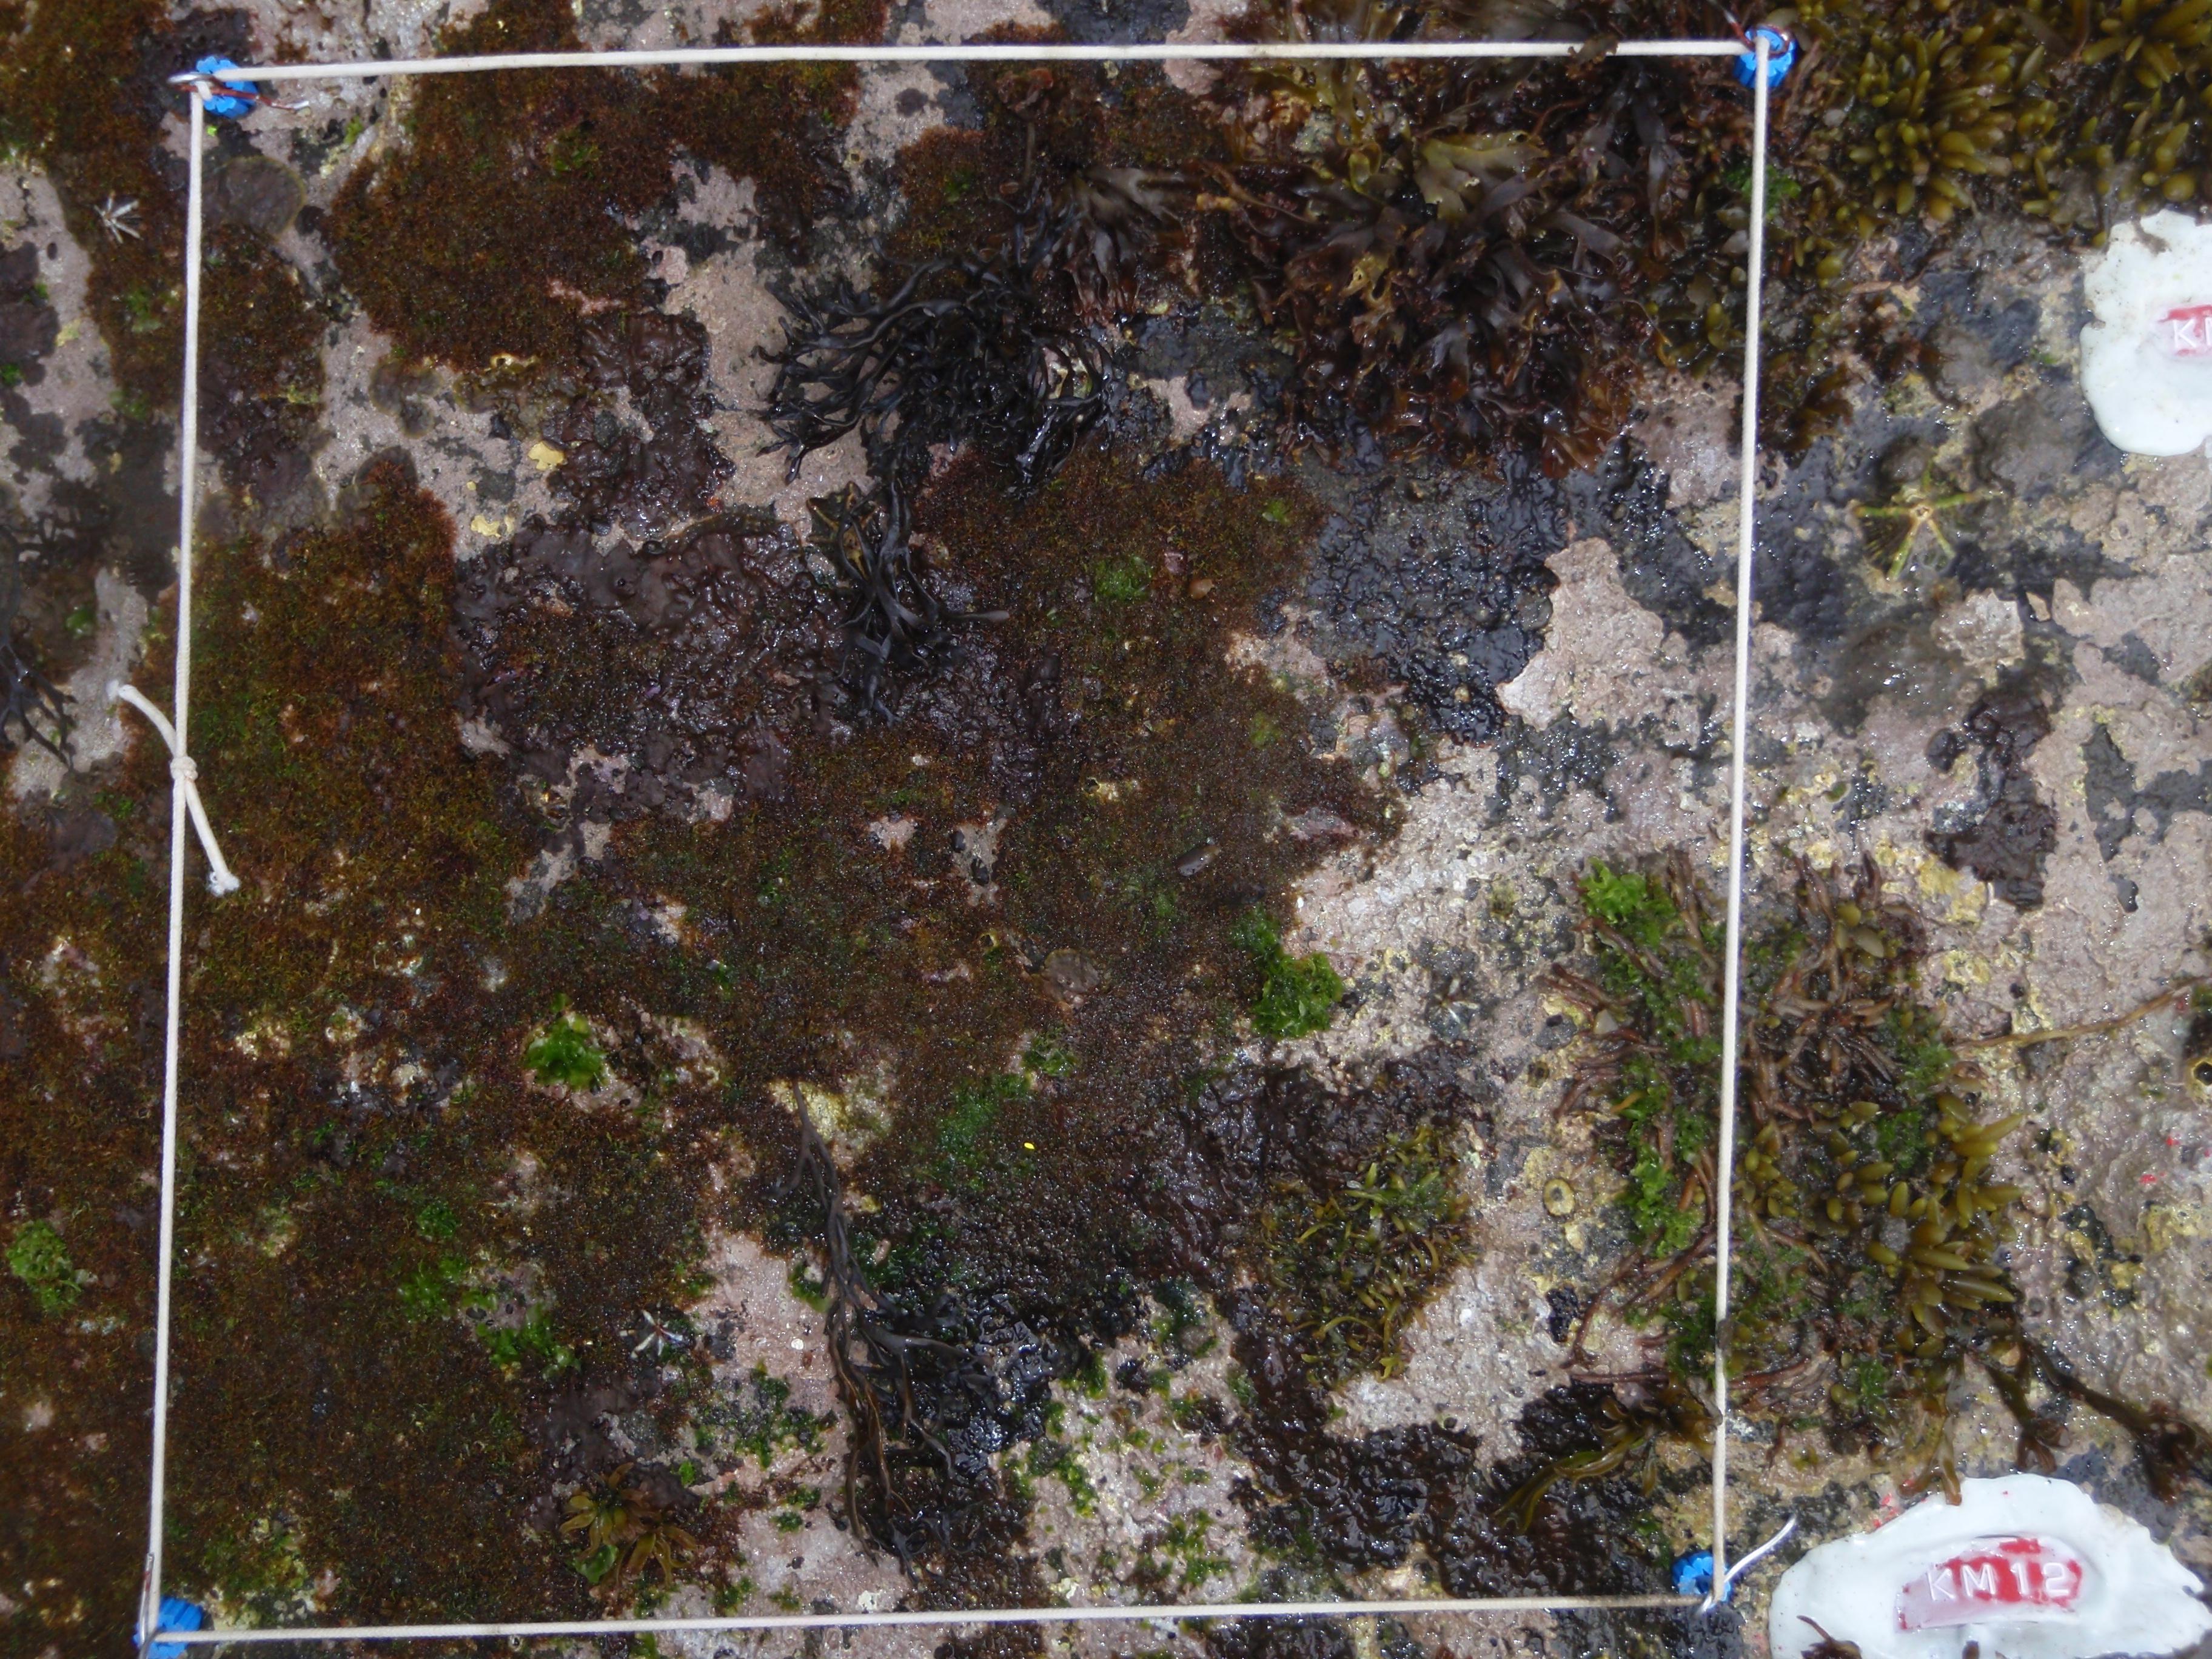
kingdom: Chromista
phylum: Ochrophyta
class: Phaeophyceae
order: Fucales
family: Sargassaceae
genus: Sargassum
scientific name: Sargassum fusiforme
